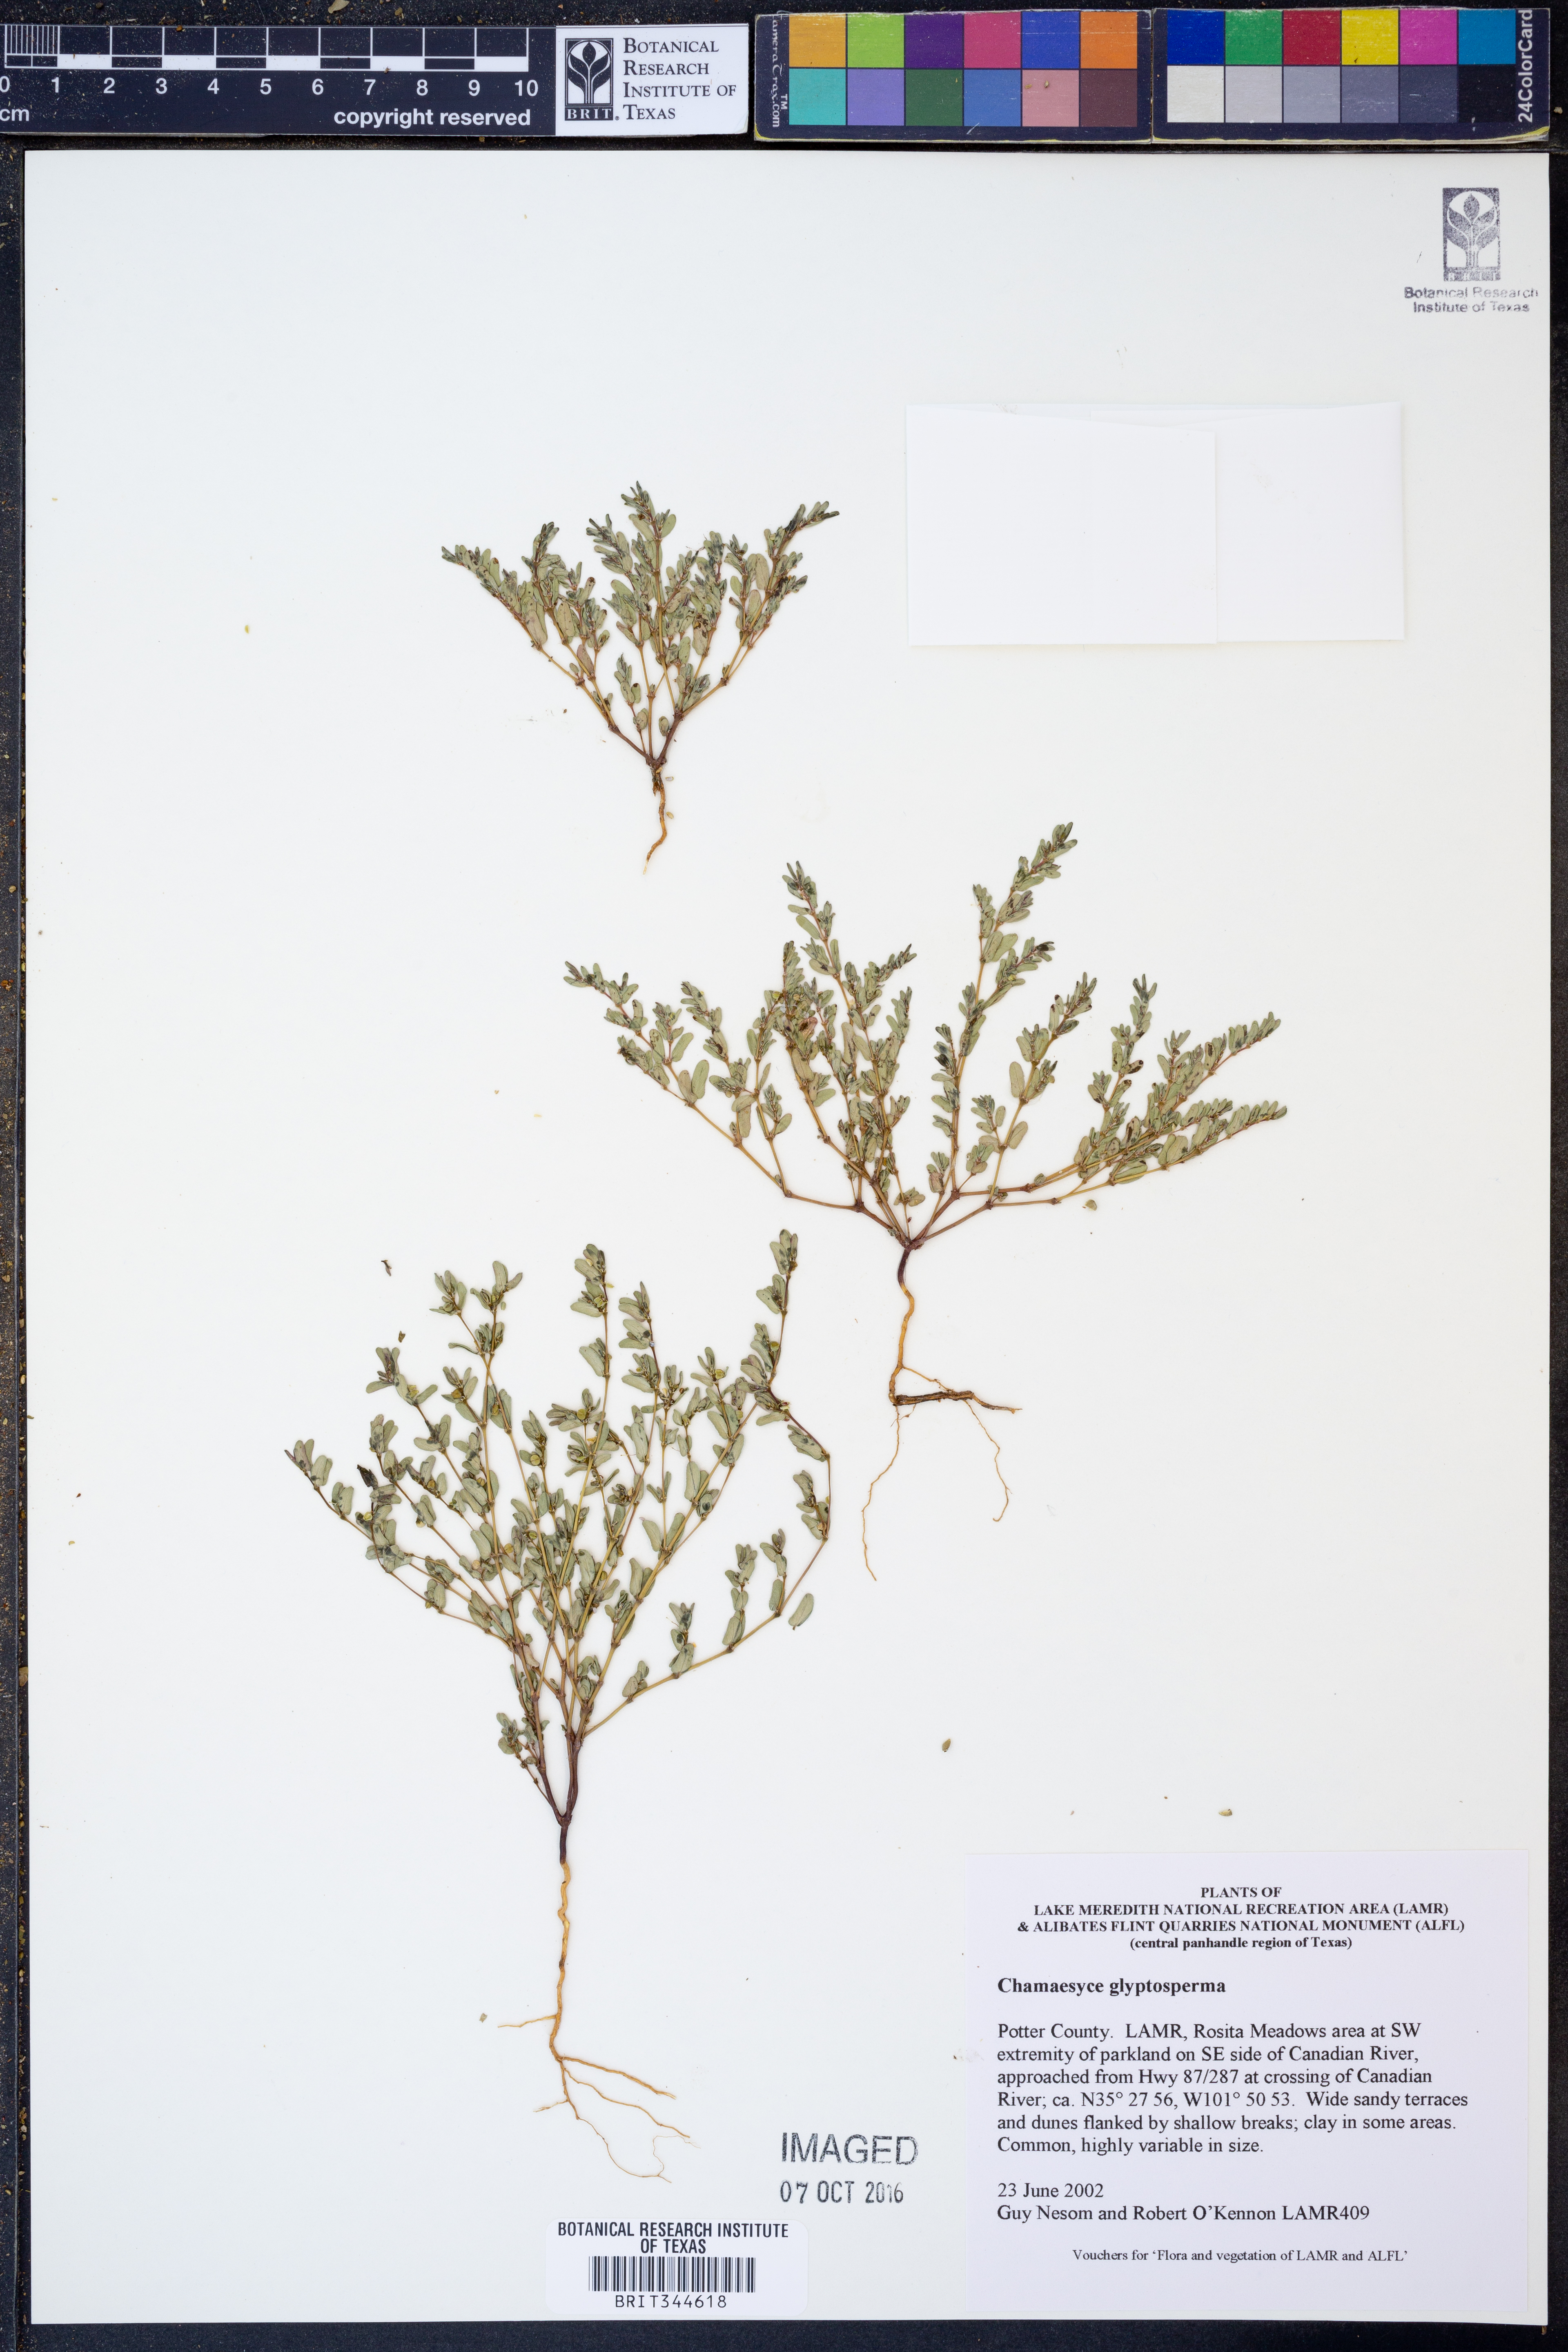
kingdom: Plantae
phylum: Tracheophyta
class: Magnoliopsida
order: Malpighiales
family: Euphorbiaceae
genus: Euphorbia
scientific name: Euphorbia glyptosperma
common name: Corrugate-seeded spurge
